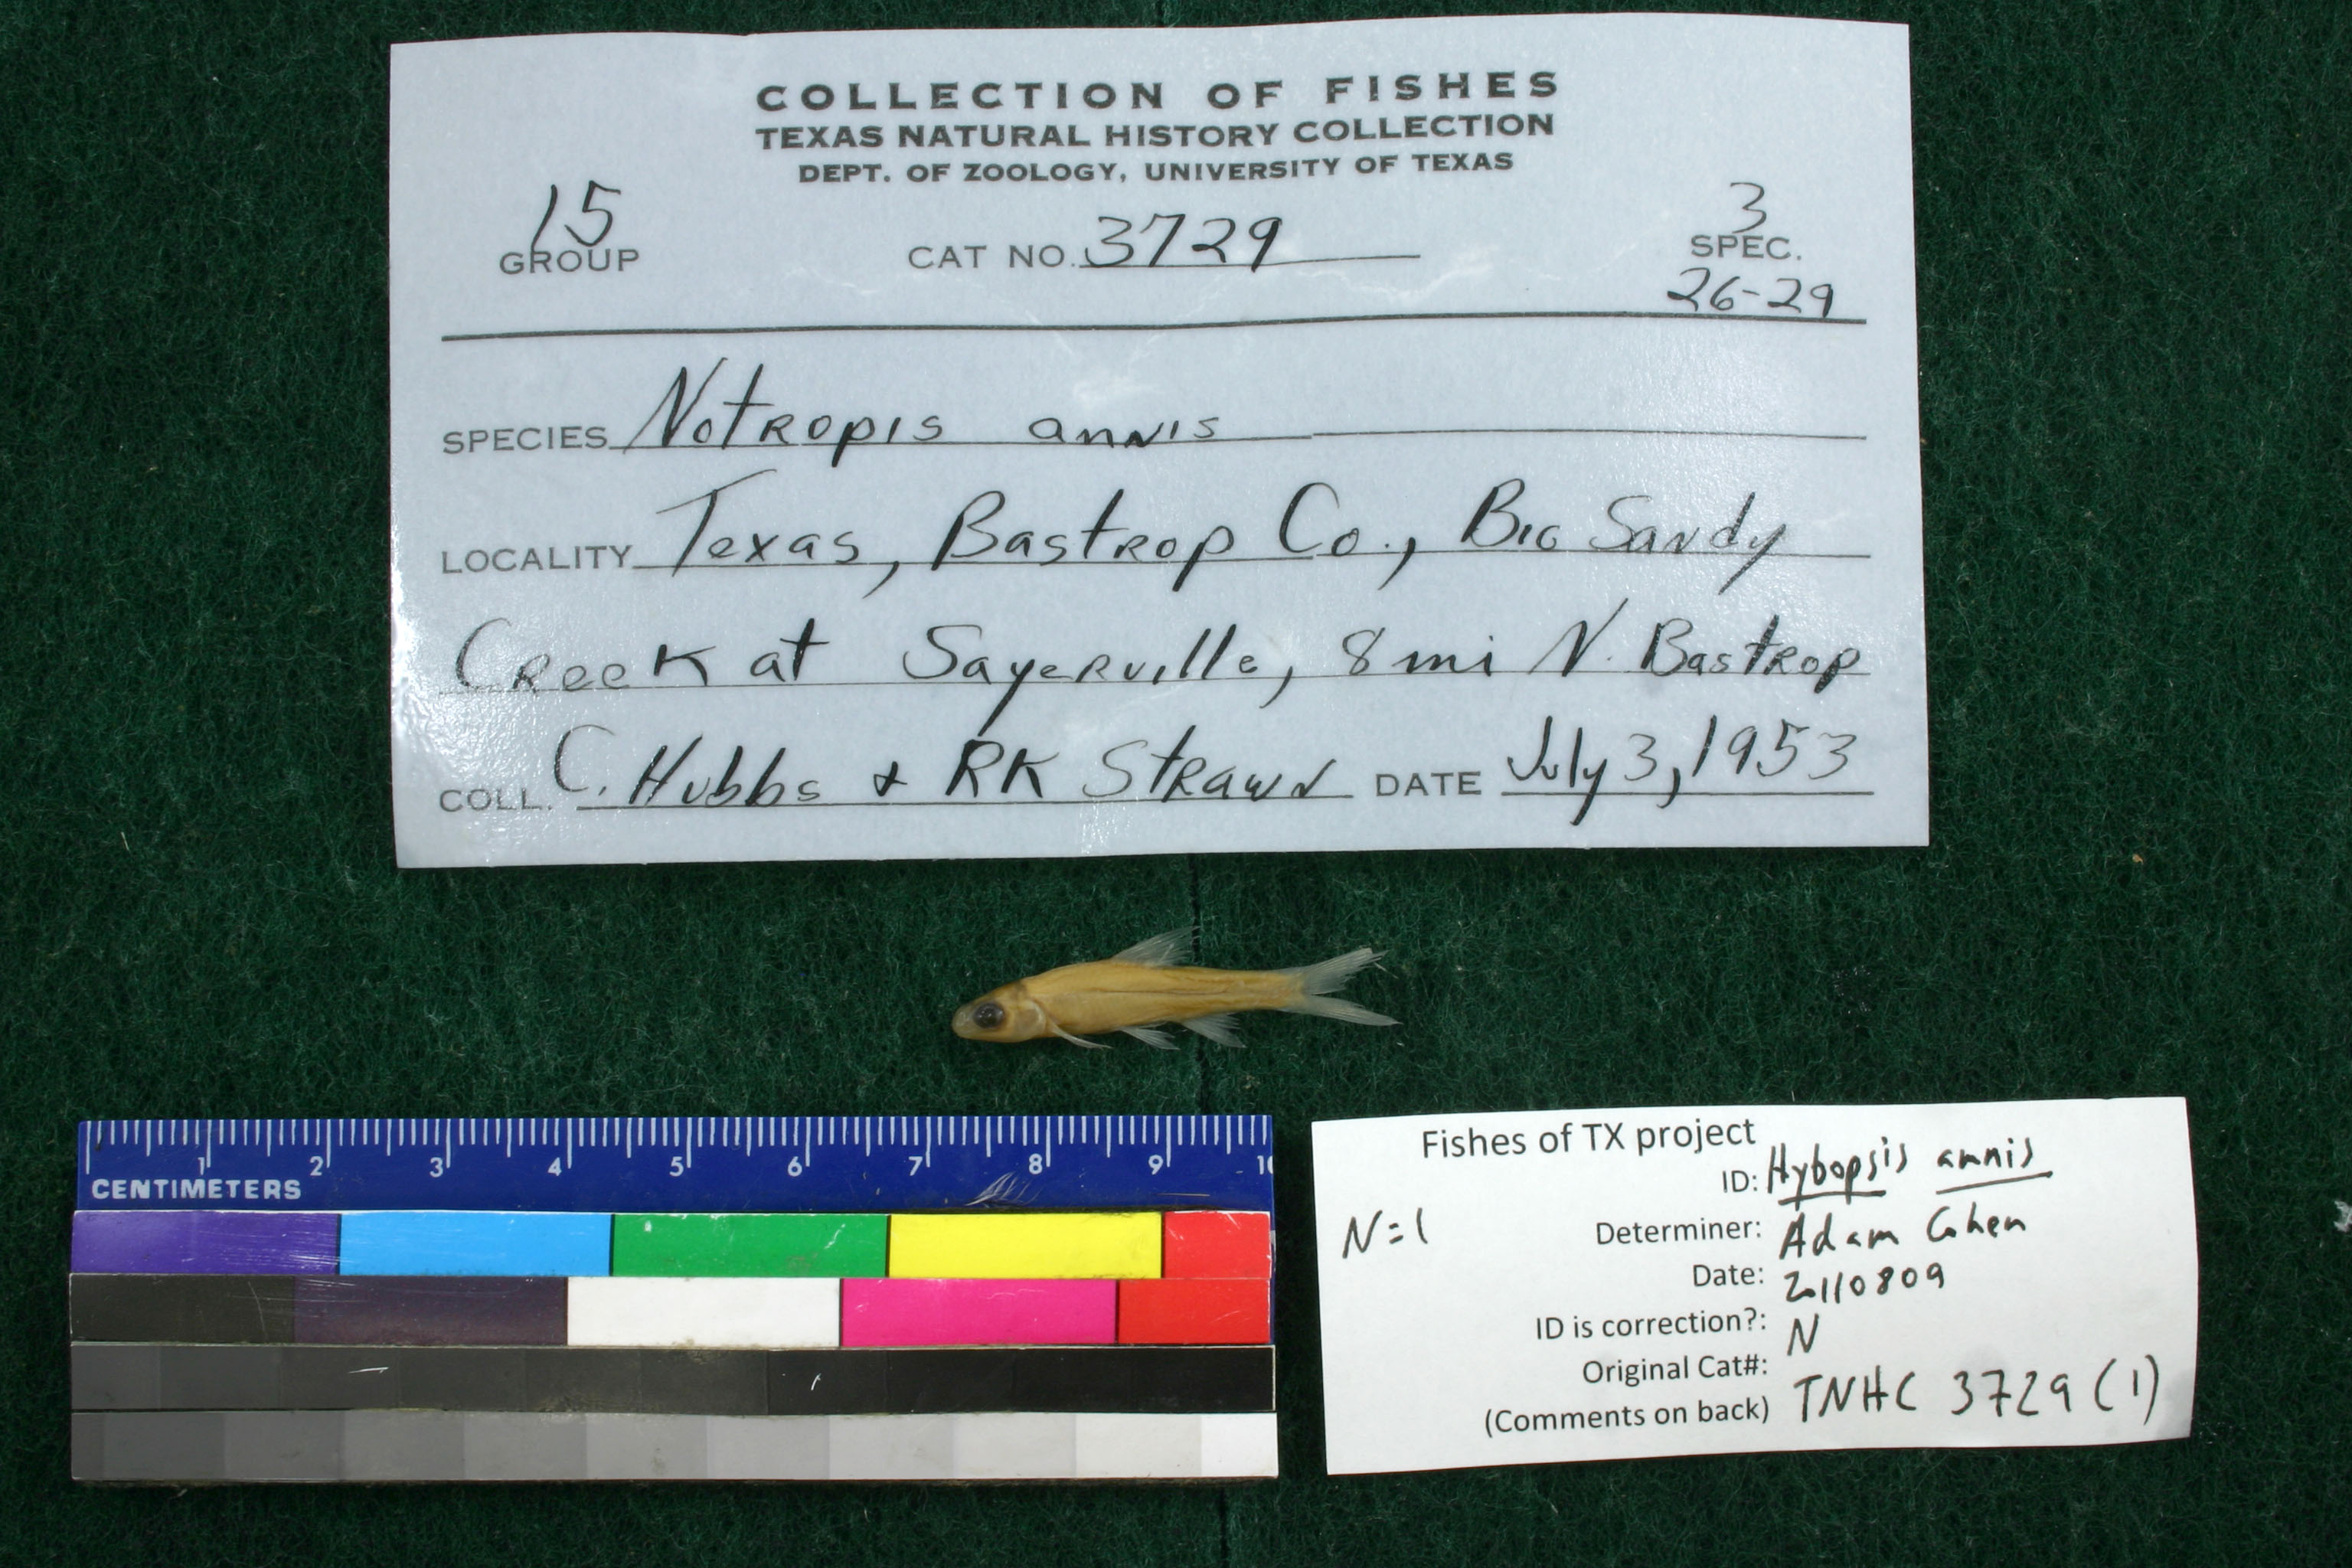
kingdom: Animalia
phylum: Chordata
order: Cypriniformes
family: Cyprinidae
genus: Hybopsis
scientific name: Hybopsis amnis
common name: Pallid shiner
